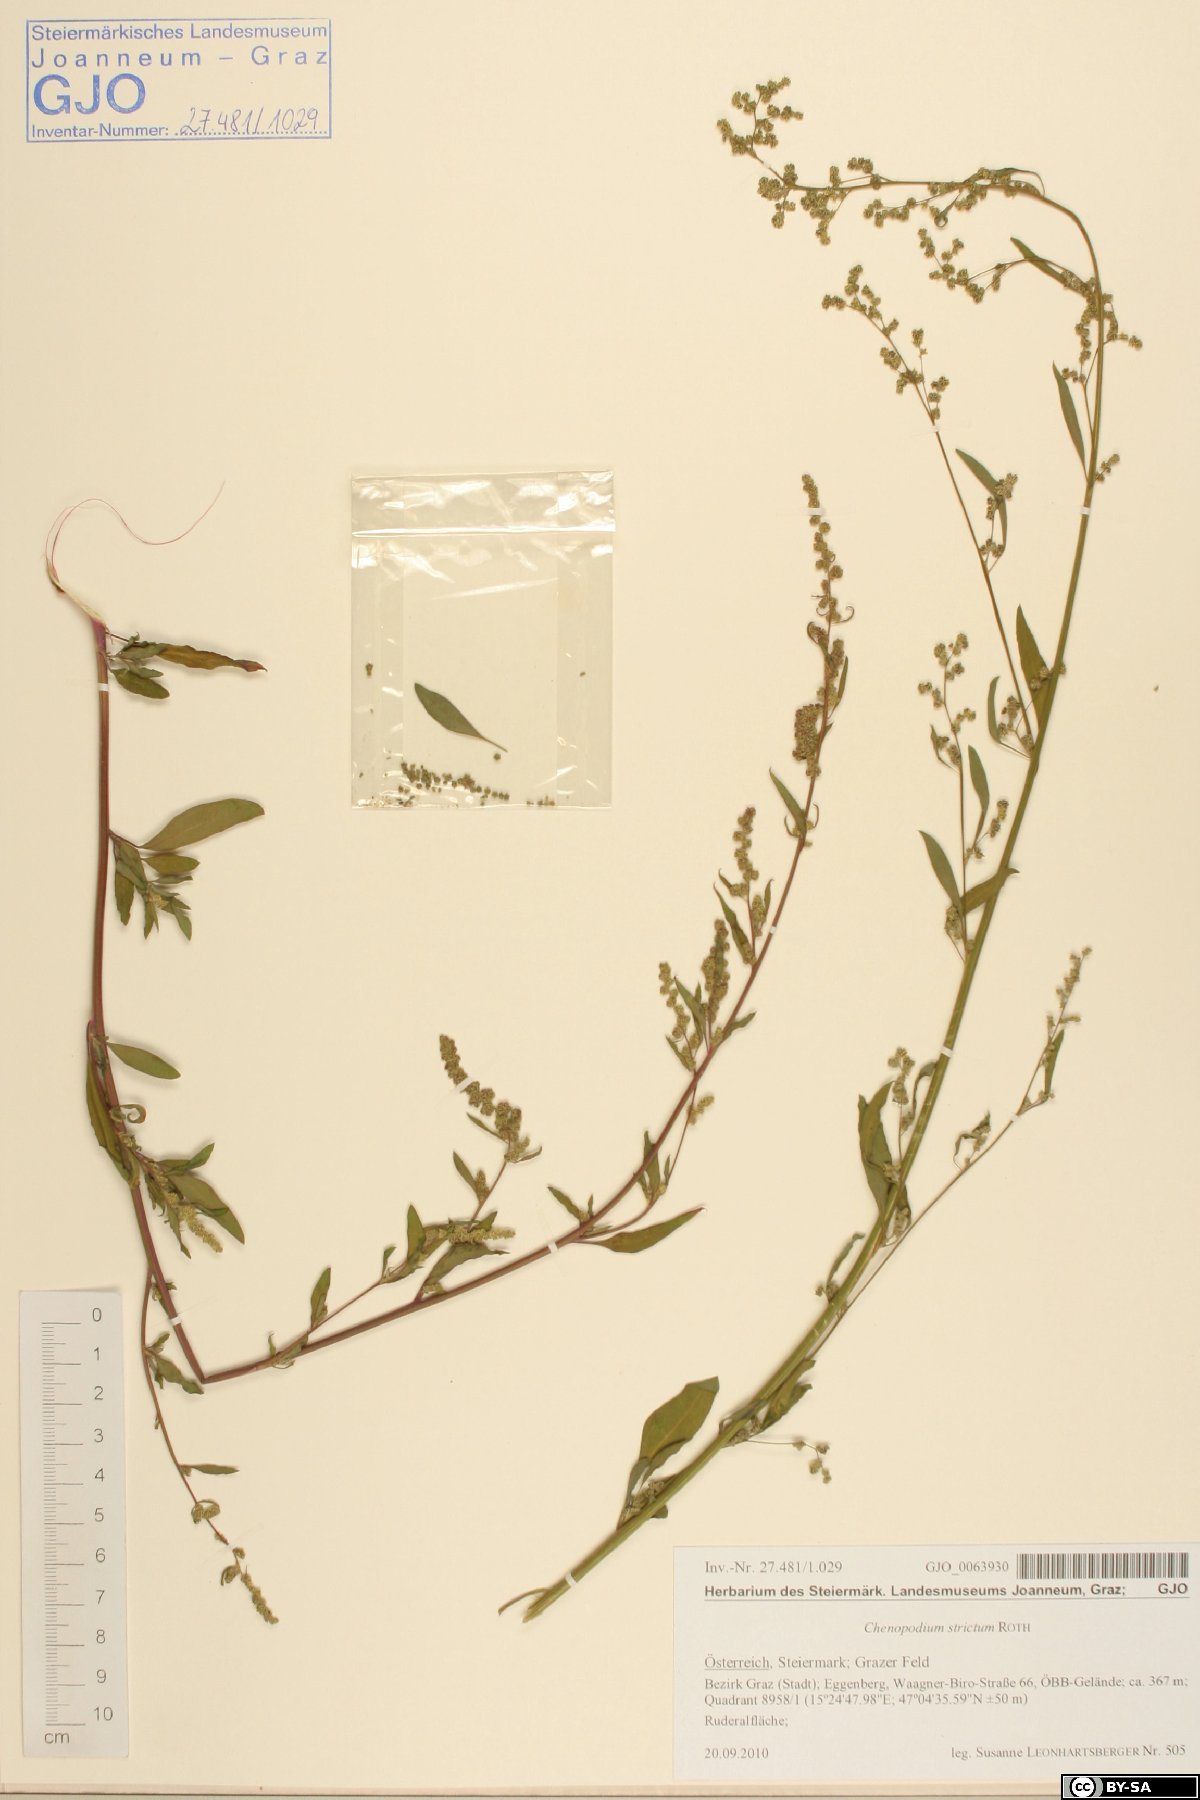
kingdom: Plantae
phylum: Tracheophyta
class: Magnoliopsida
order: Caryophyllales
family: Amaranthaceae
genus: Chenopodium
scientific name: Chenopodium album
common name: Fat-hen
